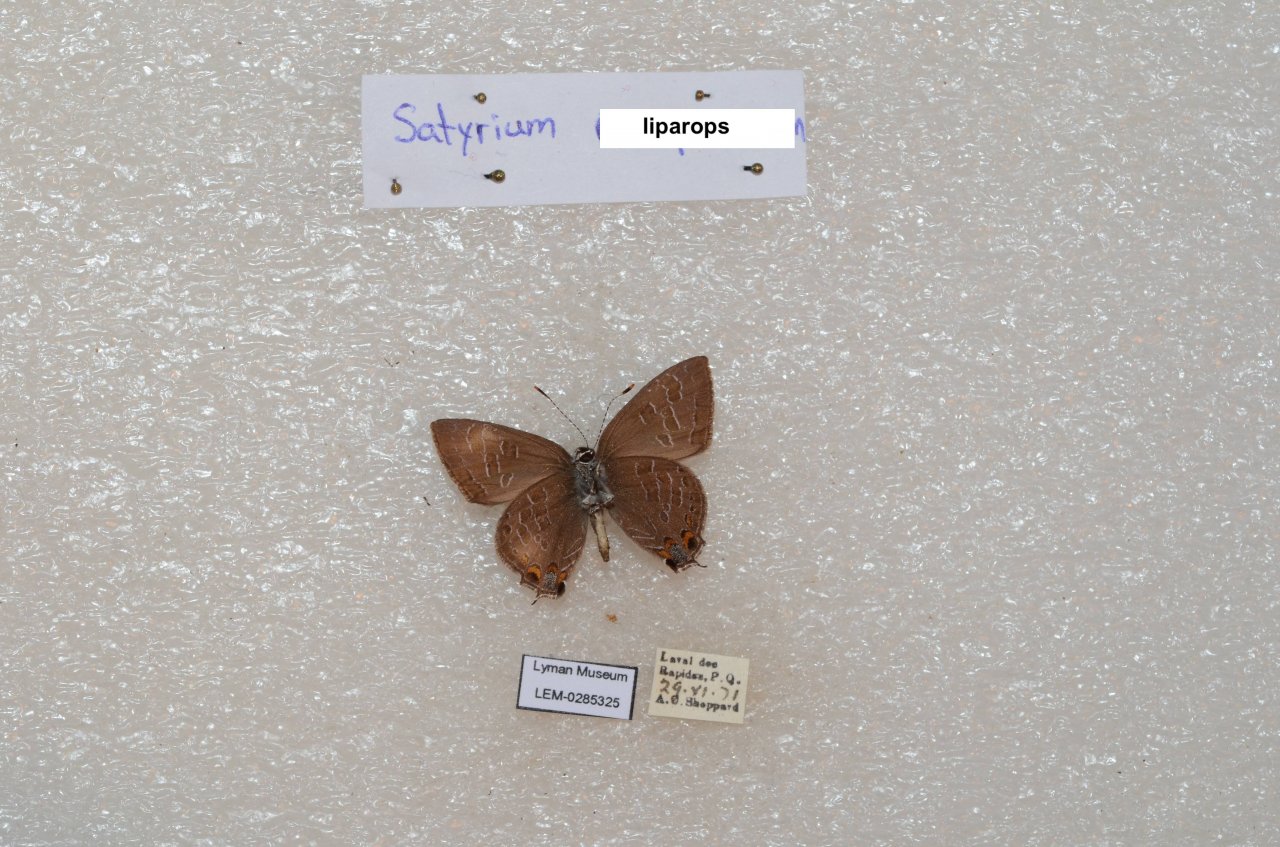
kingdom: Animalia
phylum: Arthropoda
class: Insecta
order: Lepidoptera
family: Lycaenidae
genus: Satyrium
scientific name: Satyrium liparops
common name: Striped Hairstreak
